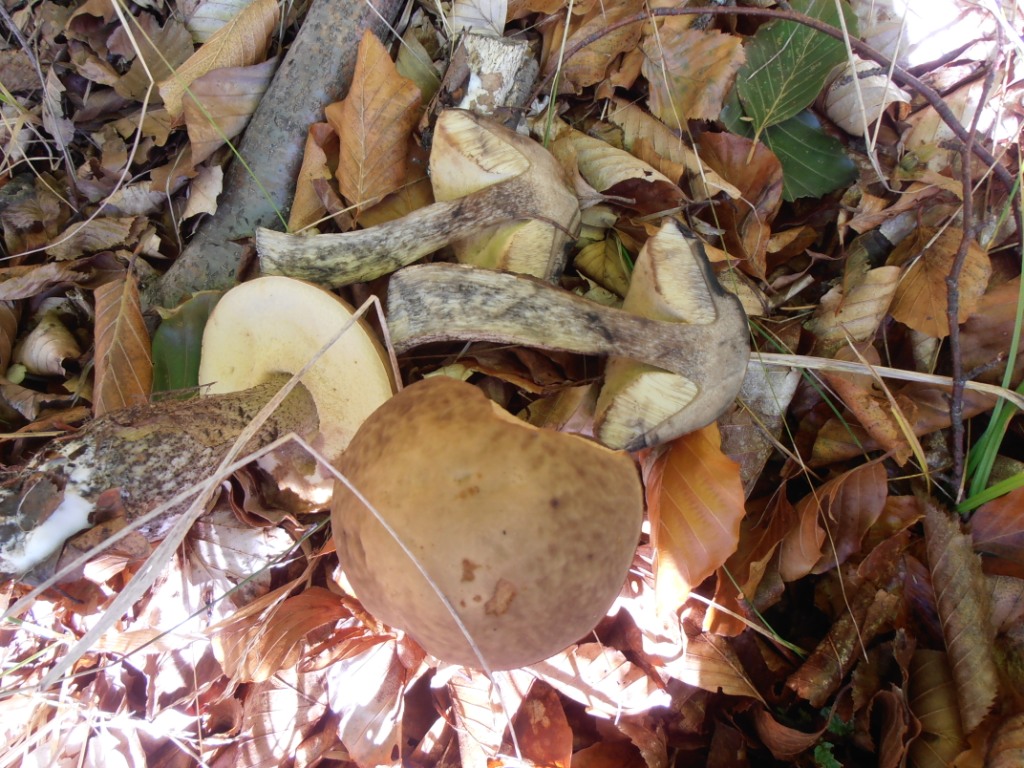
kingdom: Fungi
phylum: Basidiomycota
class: Agaricomycetes
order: Boletales
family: Boletaceae
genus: Leccinellum
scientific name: Leccinellum pseudoscabrum
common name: avnbøg-skælrørhat
